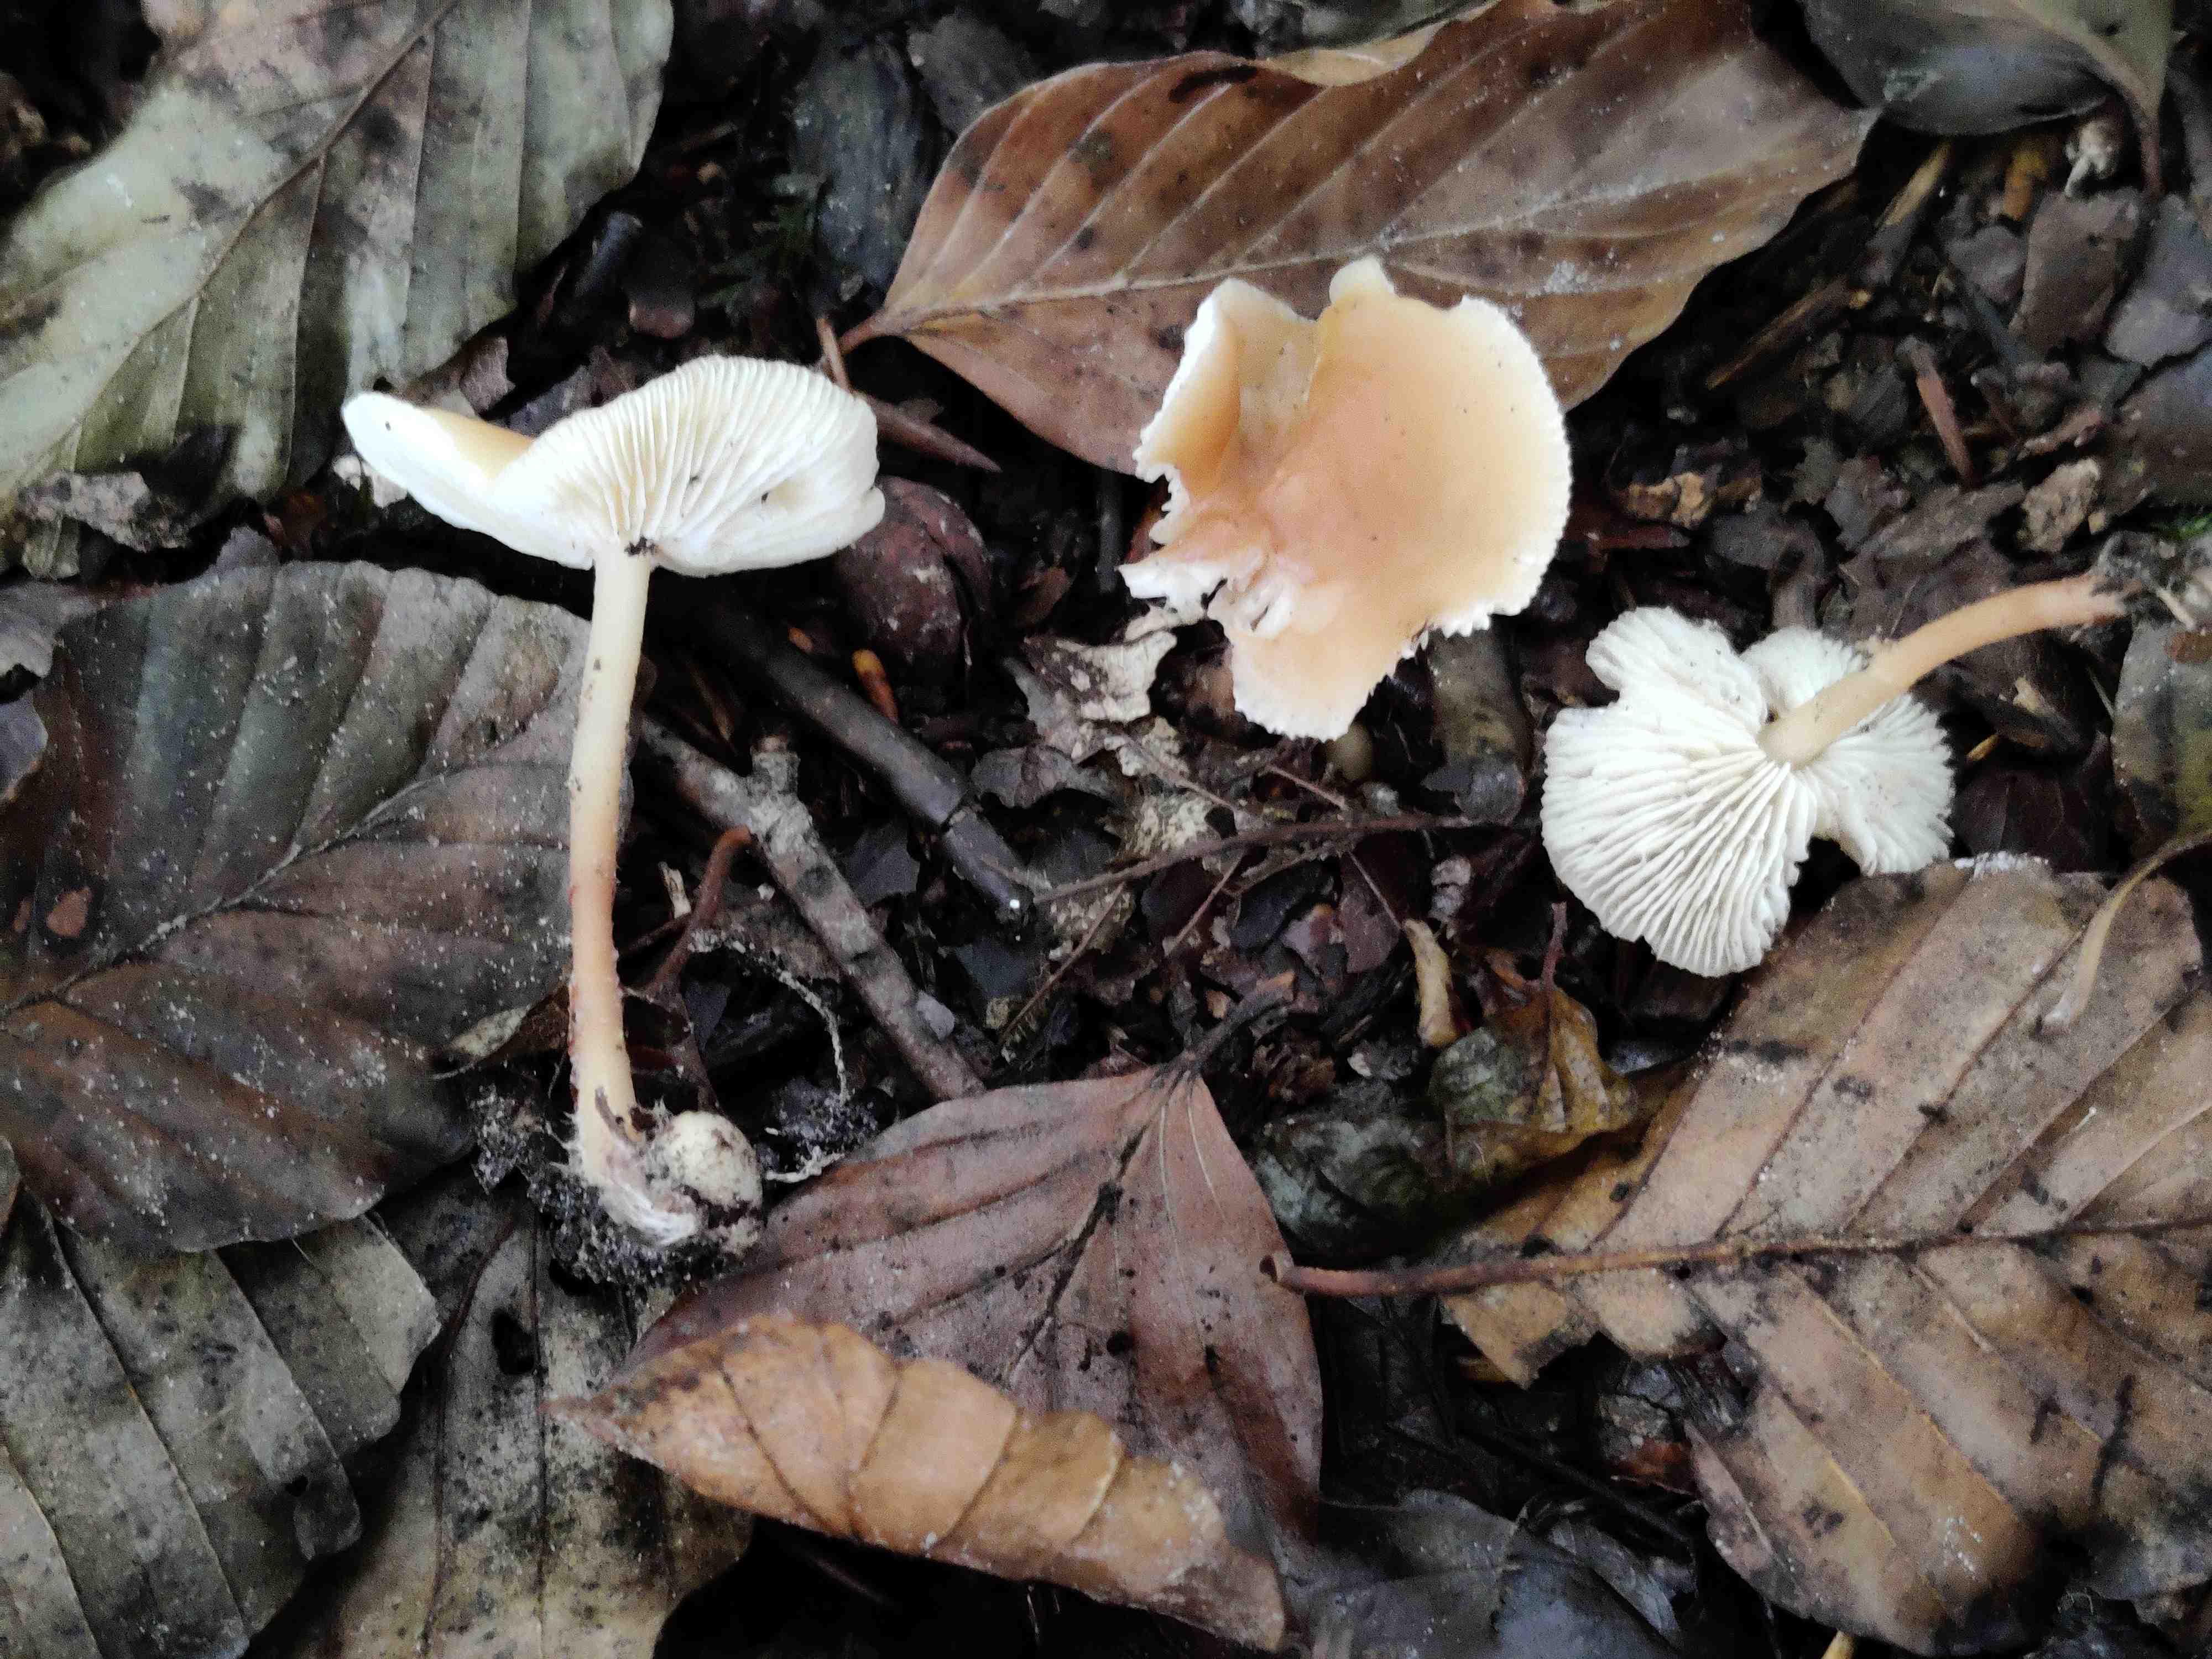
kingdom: Fungi
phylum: Basidiomycota
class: Agaricomycetes
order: Agaricales
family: Omphalotaceae
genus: Gymnopus
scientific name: Gymnopus dryophilus
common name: løv-fladhat
